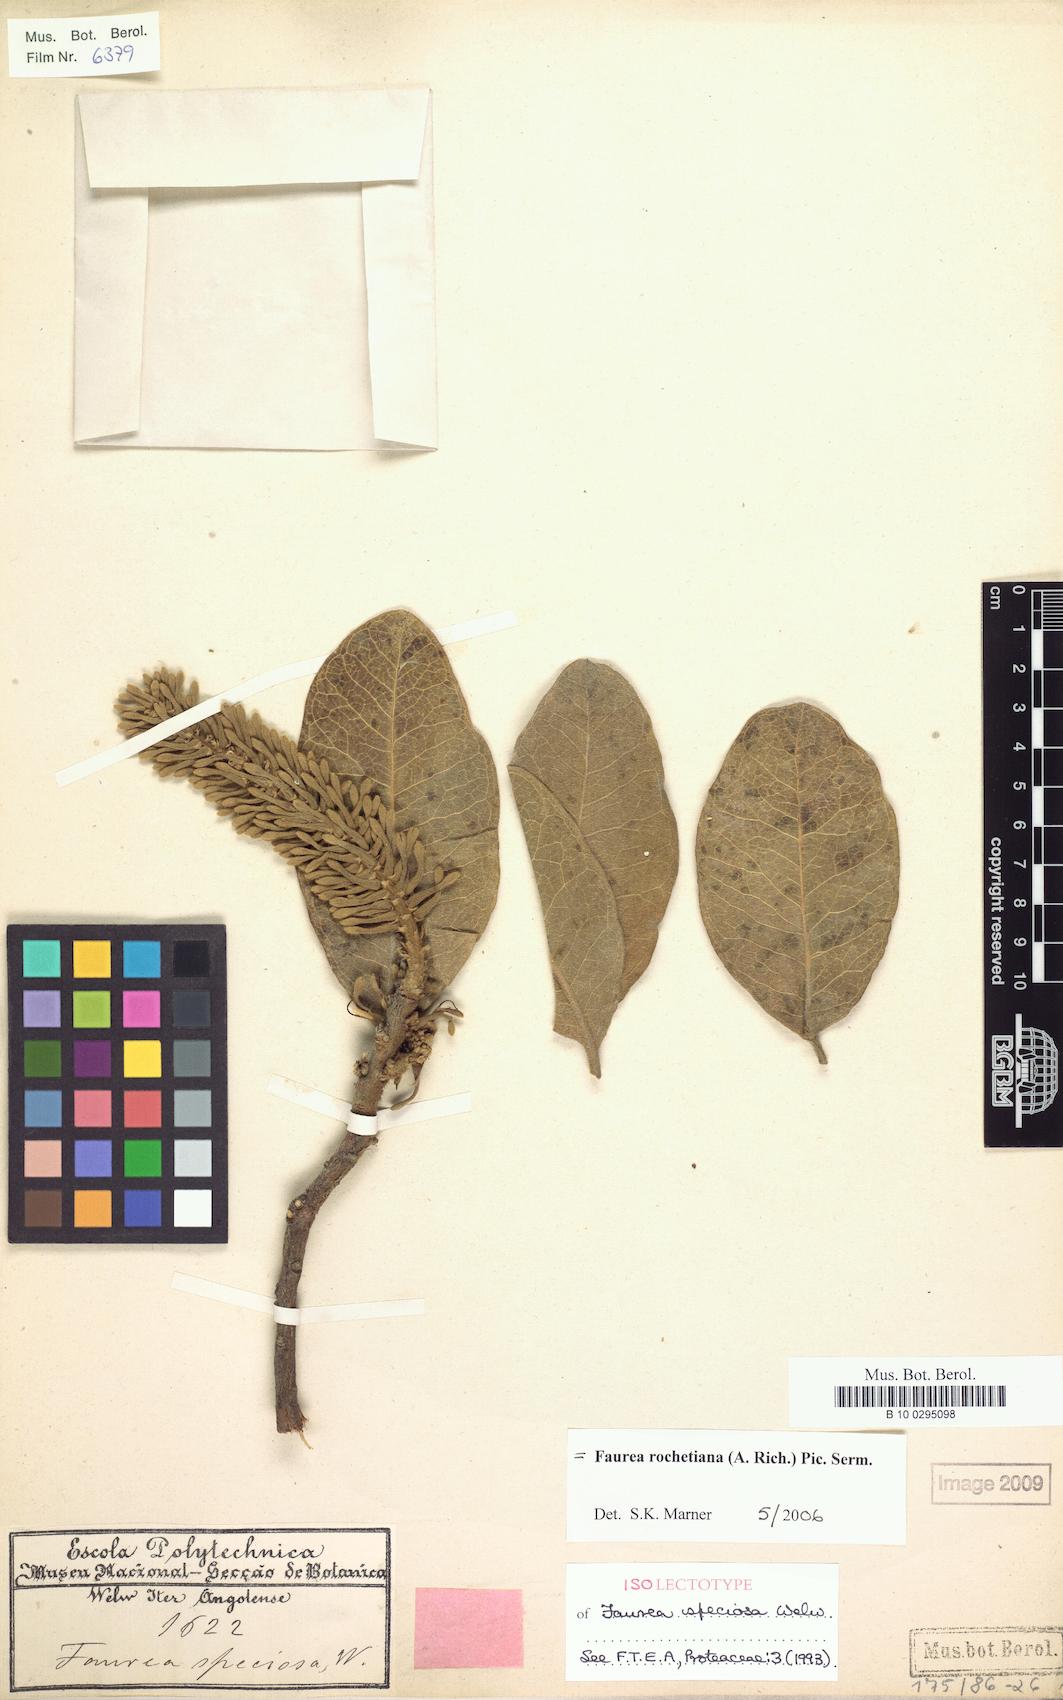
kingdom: Plantae
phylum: Tracheophyta
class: Magnoliopsida
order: Proteales
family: Proteaceae
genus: Faurea
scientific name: Faurea rochetiana
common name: Broad-leaved beech
